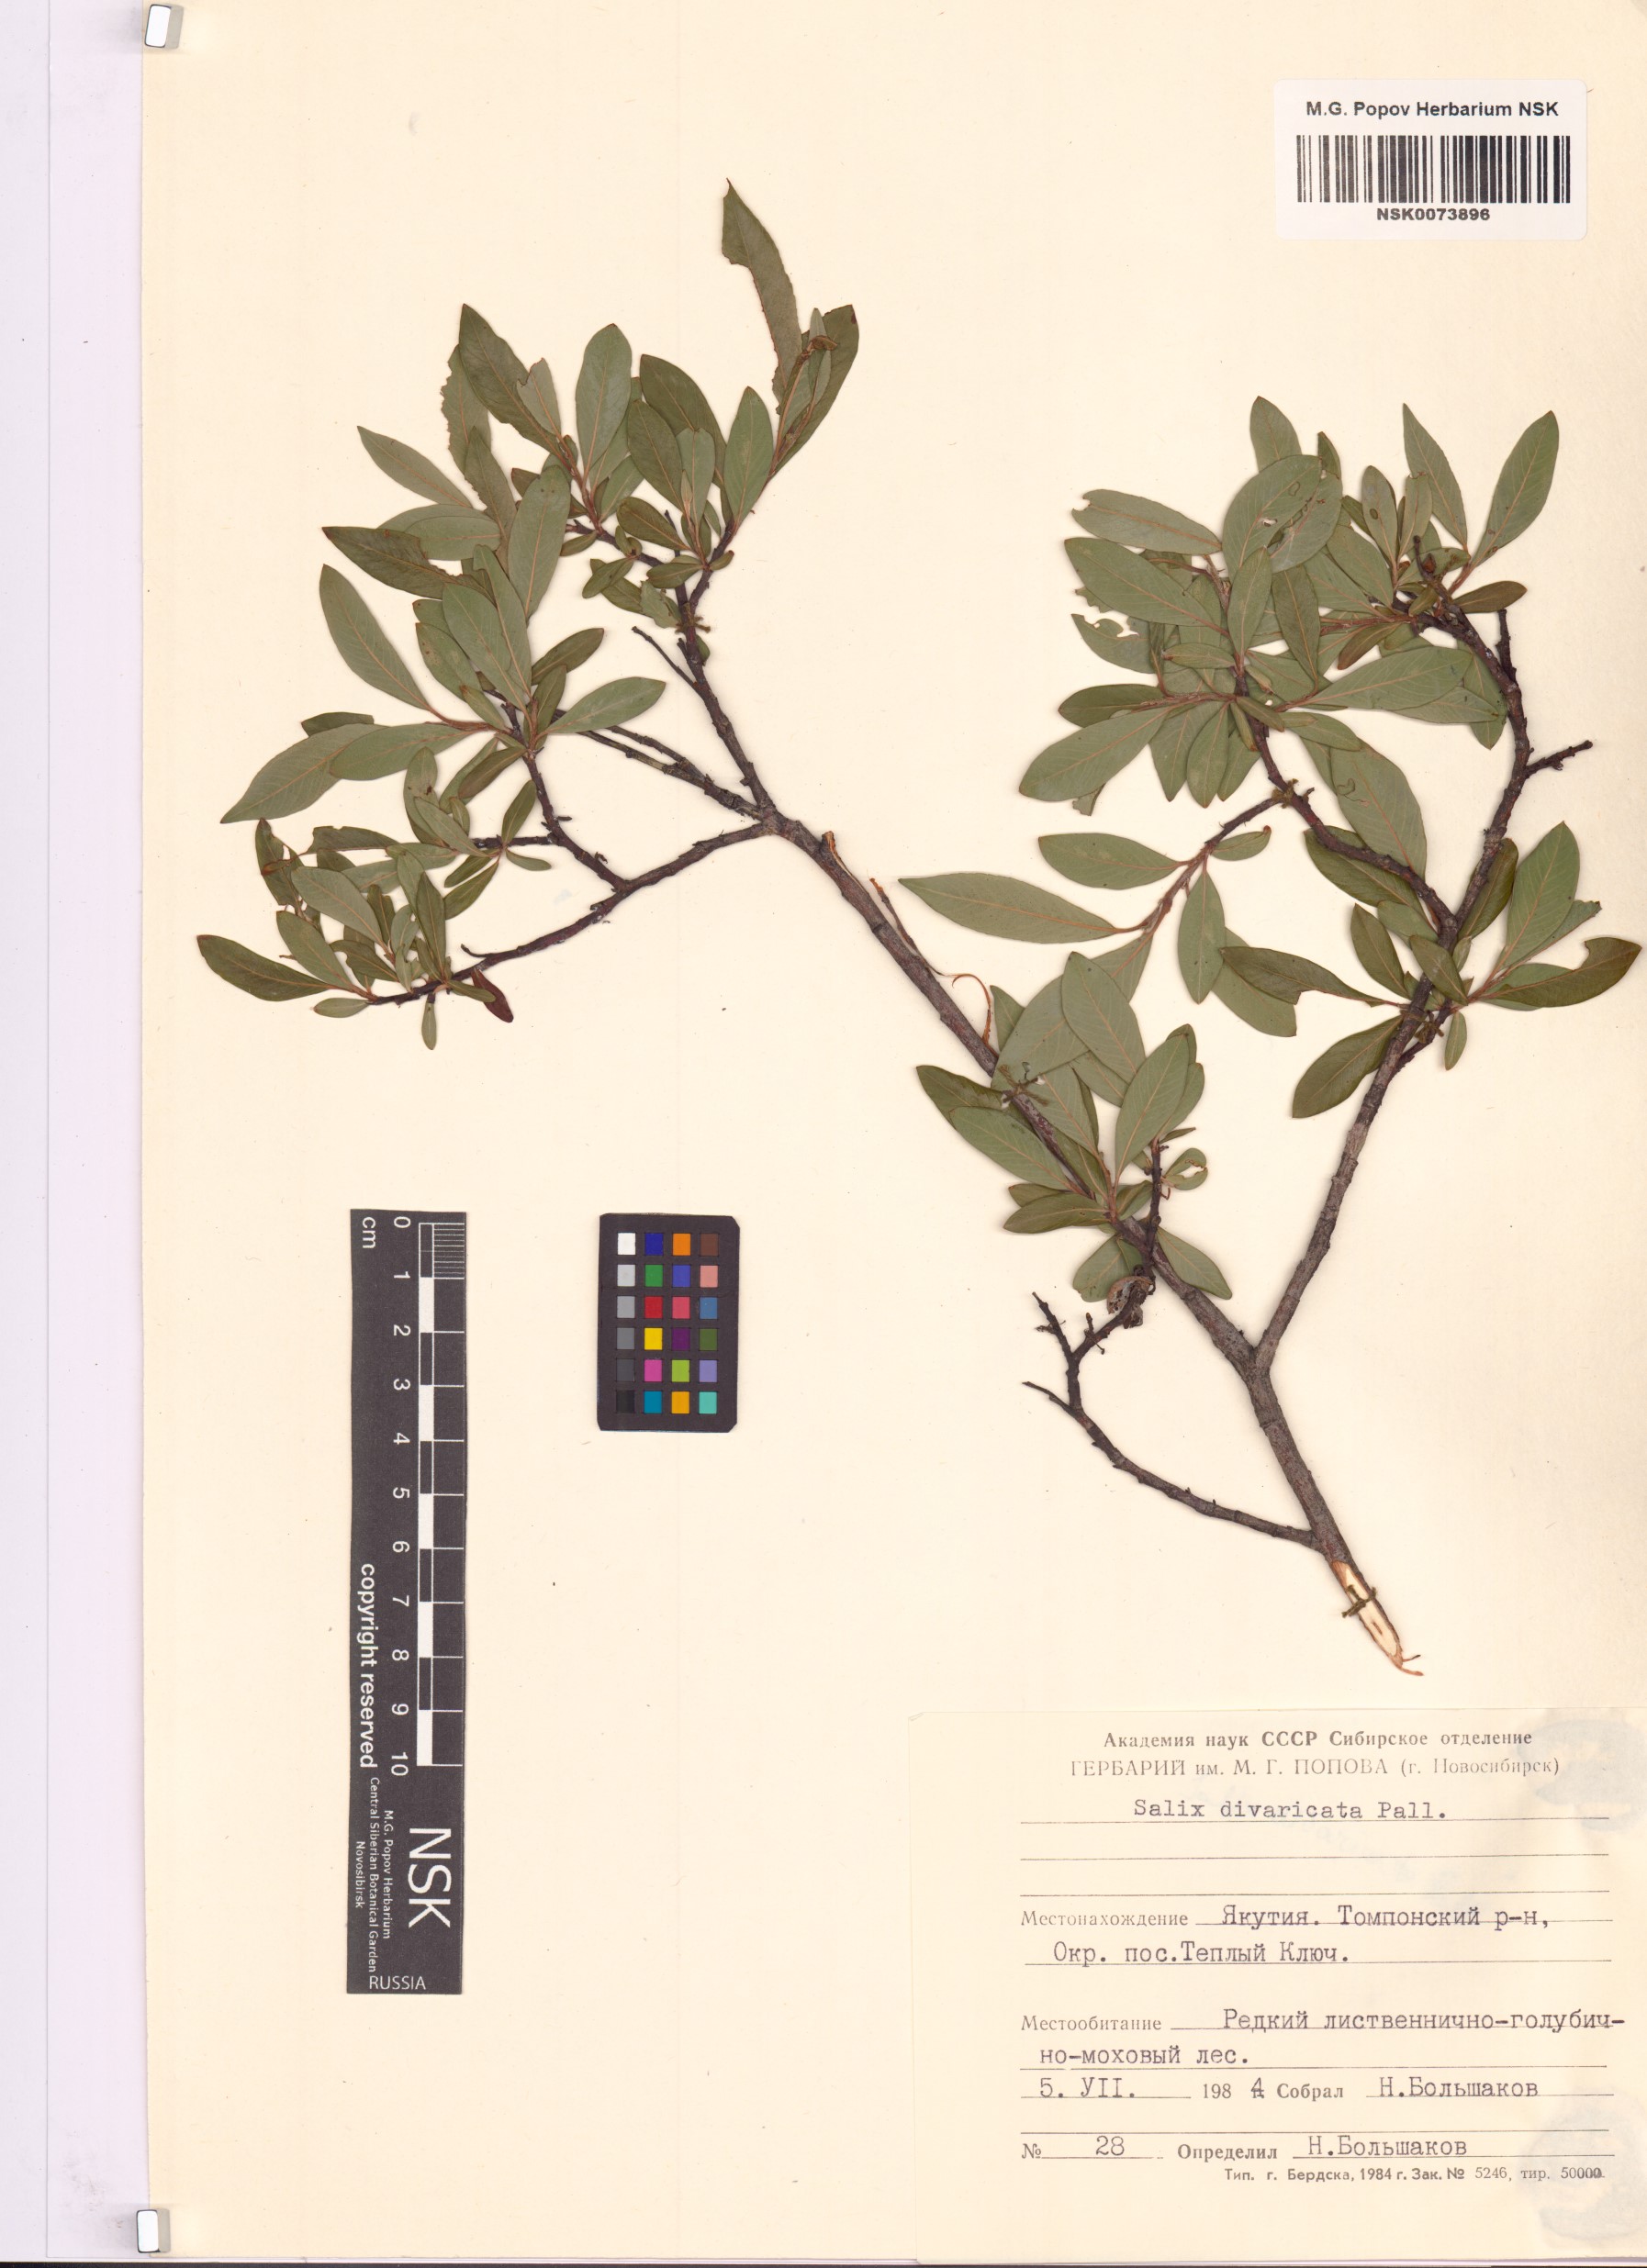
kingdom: Plantae
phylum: Tracheophyta
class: Magnoliopsida
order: Malpighiales
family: Salicaceae
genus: Salix
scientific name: Salix divaricata
